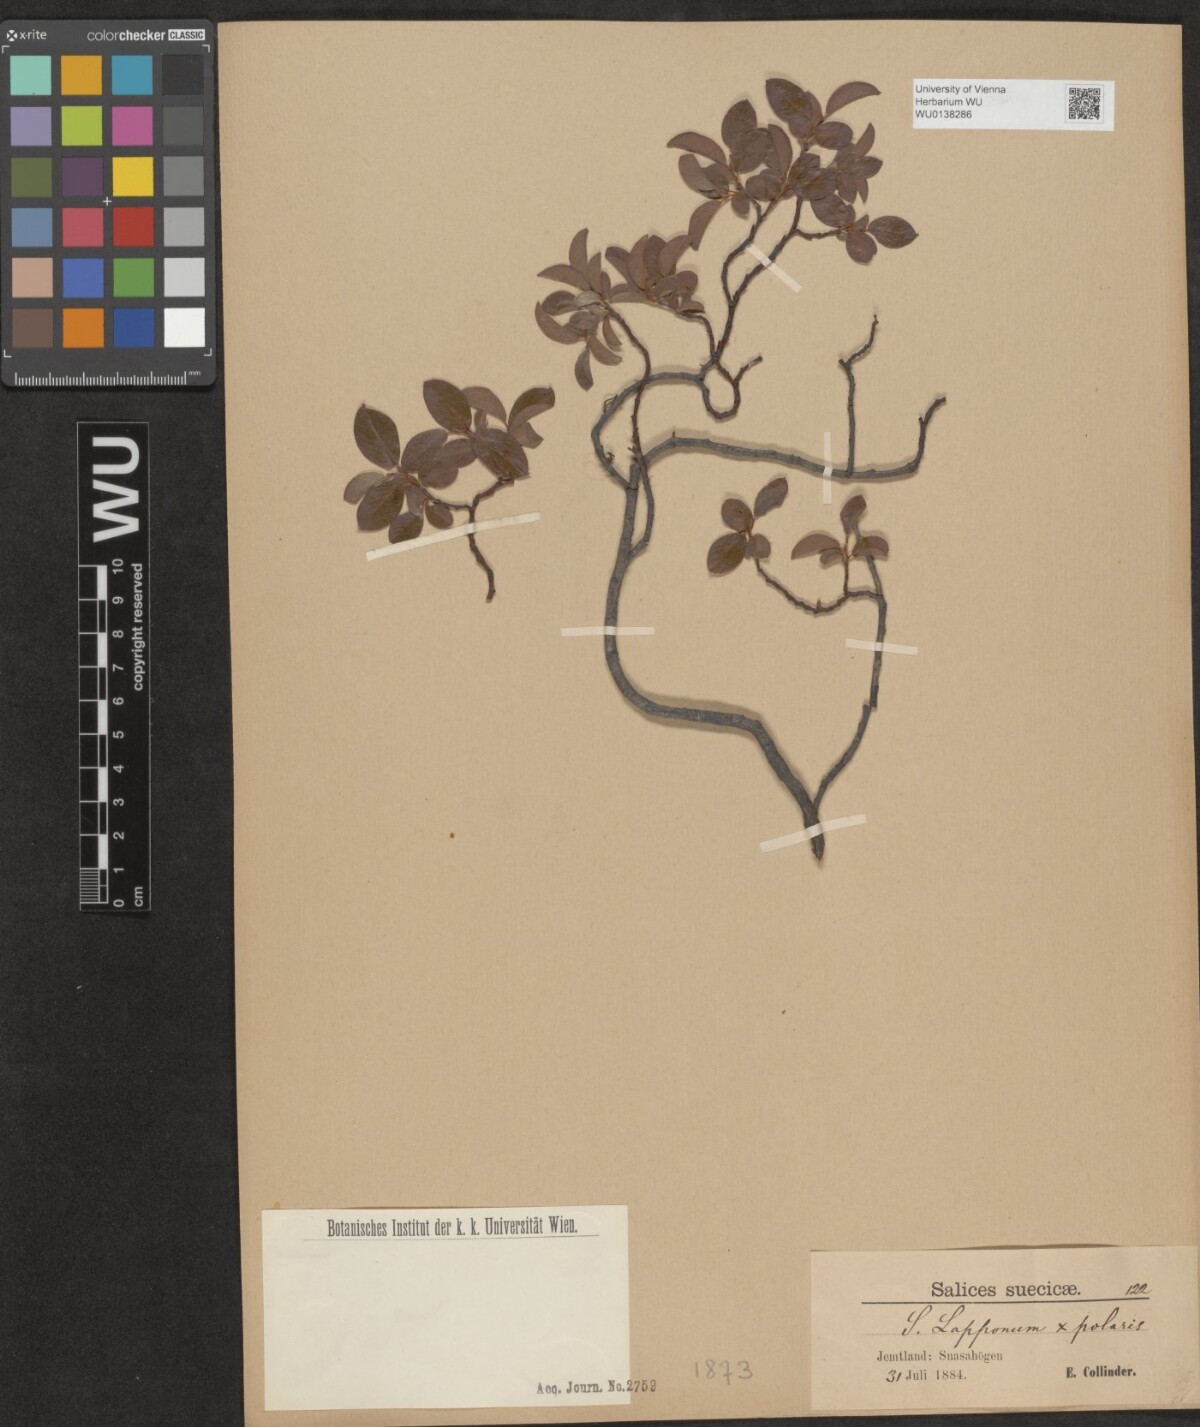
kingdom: Plantae
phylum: Tracheophyta
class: Magnoliopsida
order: Malpighiales
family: Salicaceae
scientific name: Salicaceae
